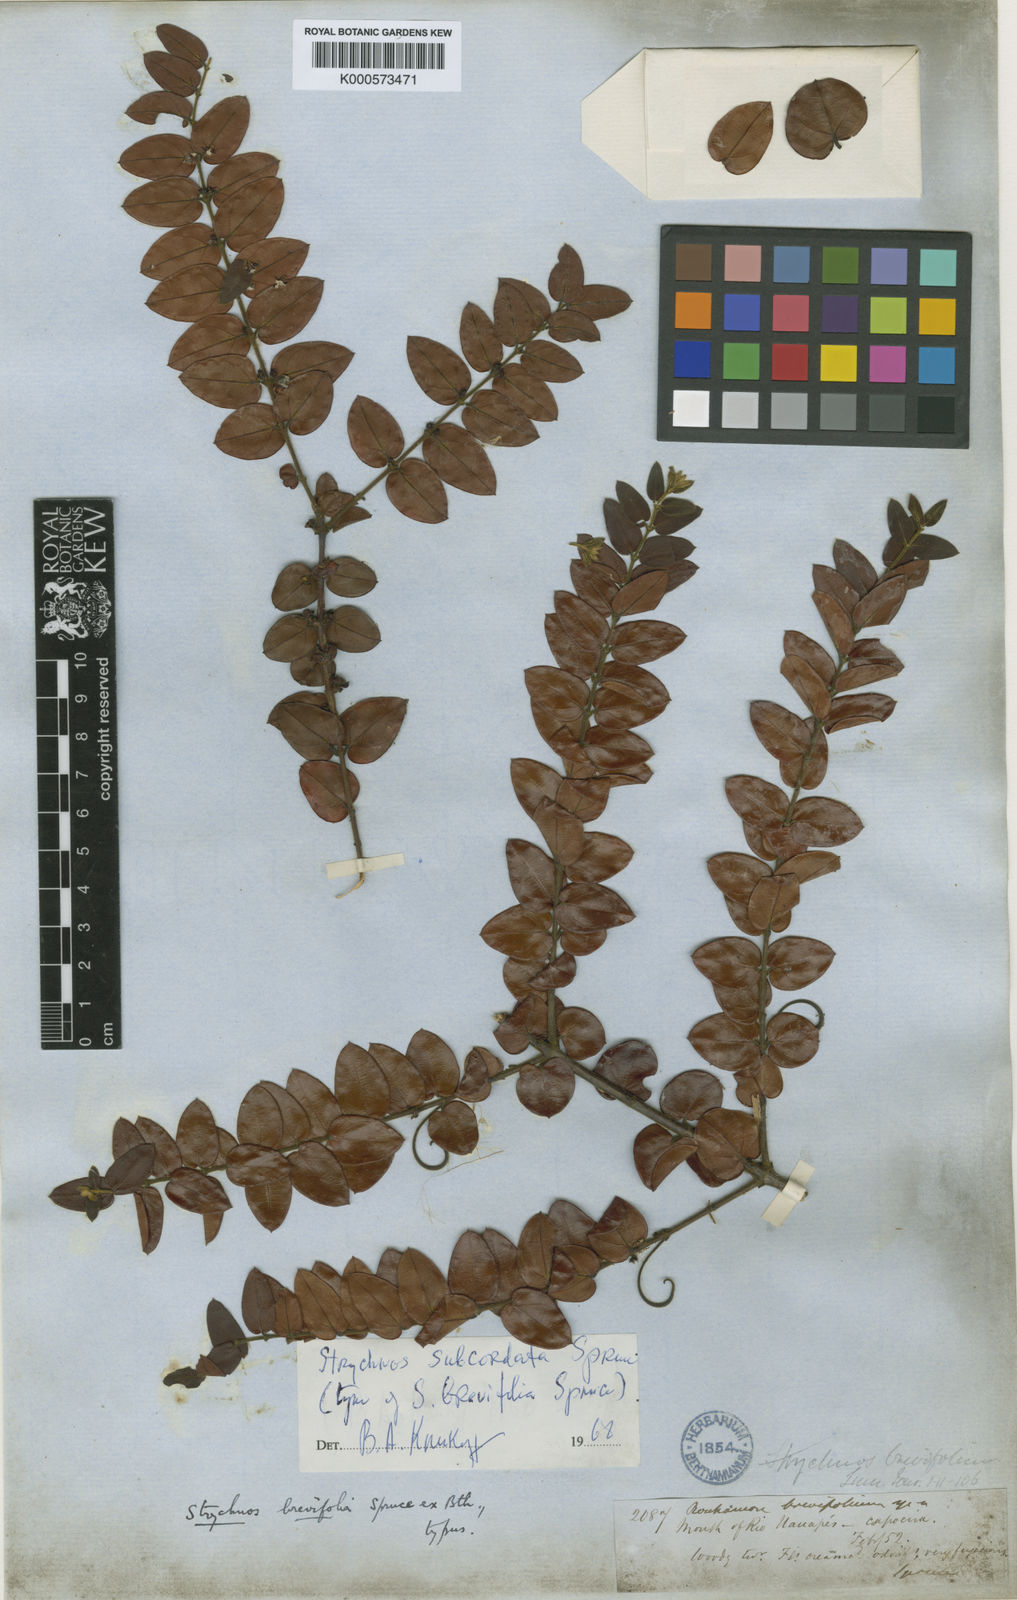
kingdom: Plantae
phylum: Tracheophyta
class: Magnoliopsida
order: Gentianales
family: Loganiaceae
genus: Strychnos
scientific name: Strychnos subcordata
